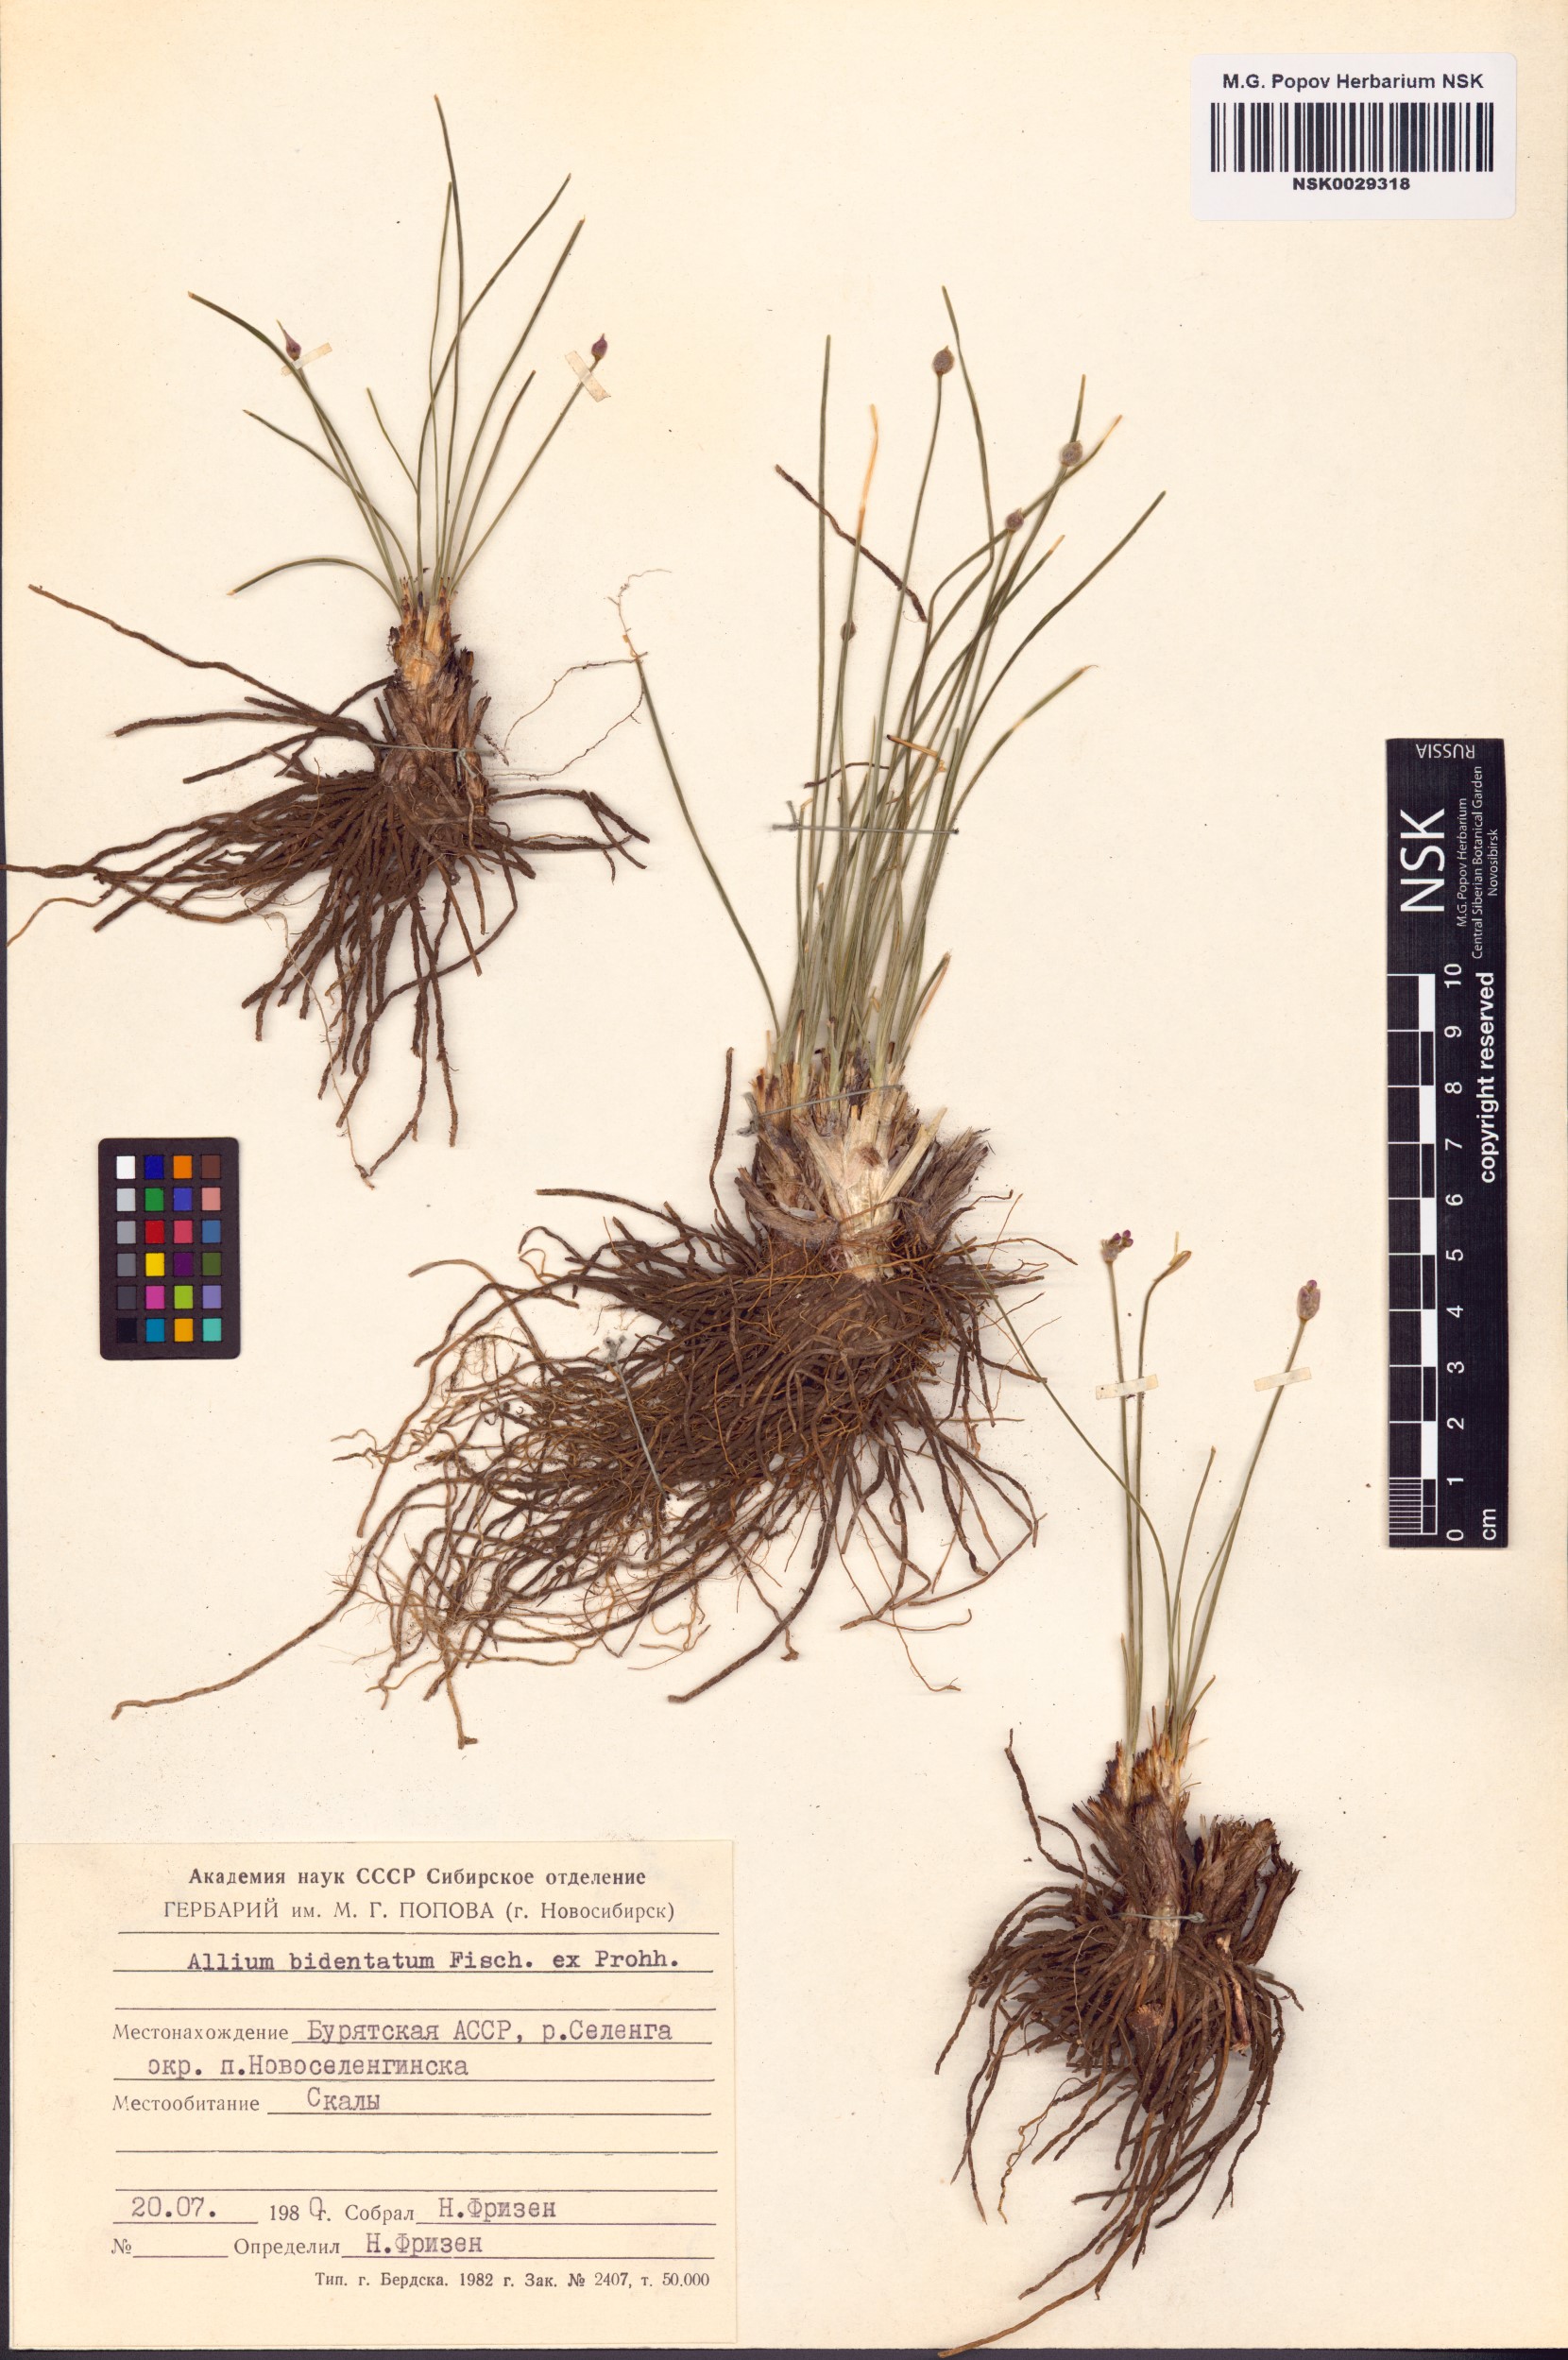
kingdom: Plantae
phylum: Tracheophyta
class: Liliopsida
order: Asparagales
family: Amaryllidaceae
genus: Allium
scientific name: Allium bidentatum
